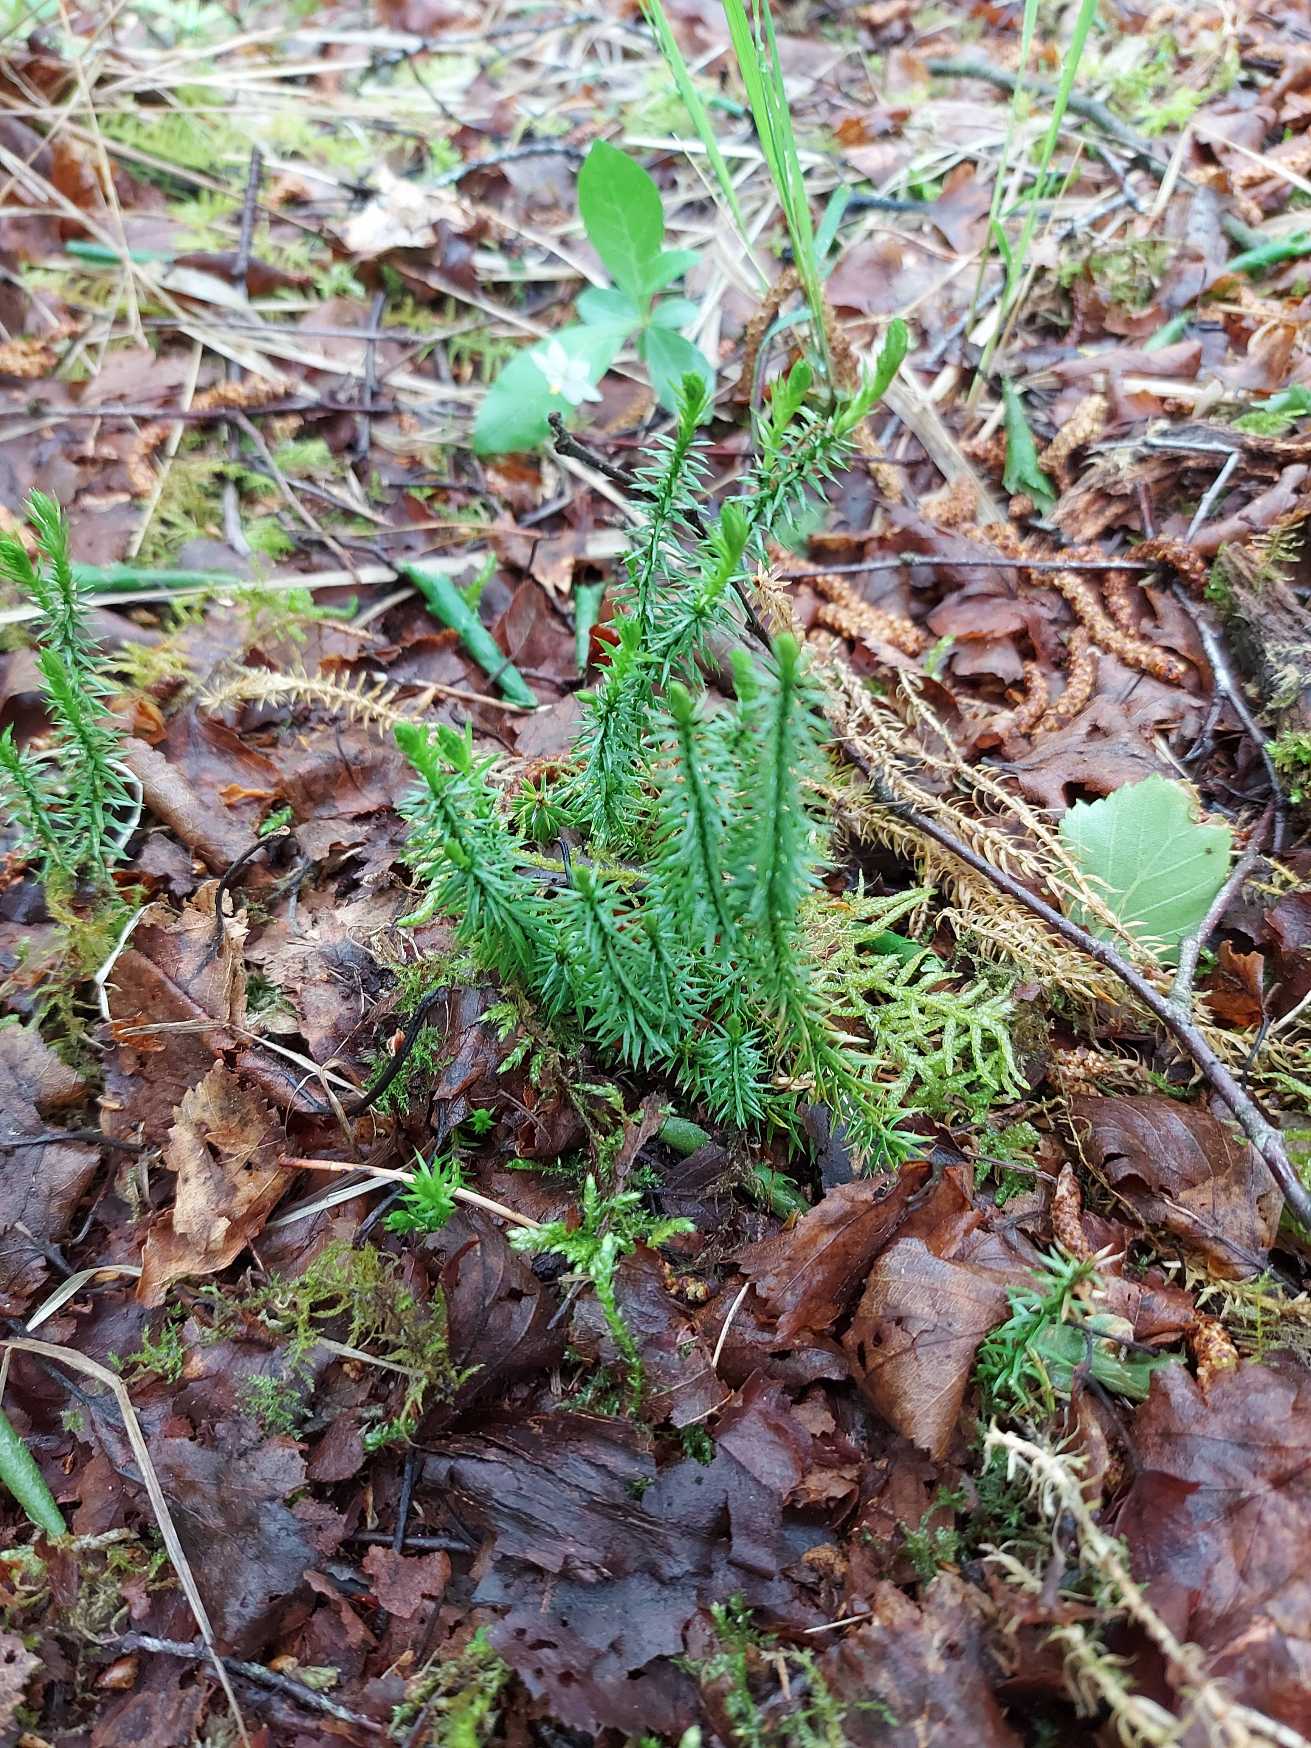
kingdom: Plantae
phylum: Tracheophyta
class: Lycopodiopsida
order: Lycopodiales
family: Lycopodiaceae
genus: Spinulum
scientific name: Spinulum annotinum
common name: Femradet ulvefod
